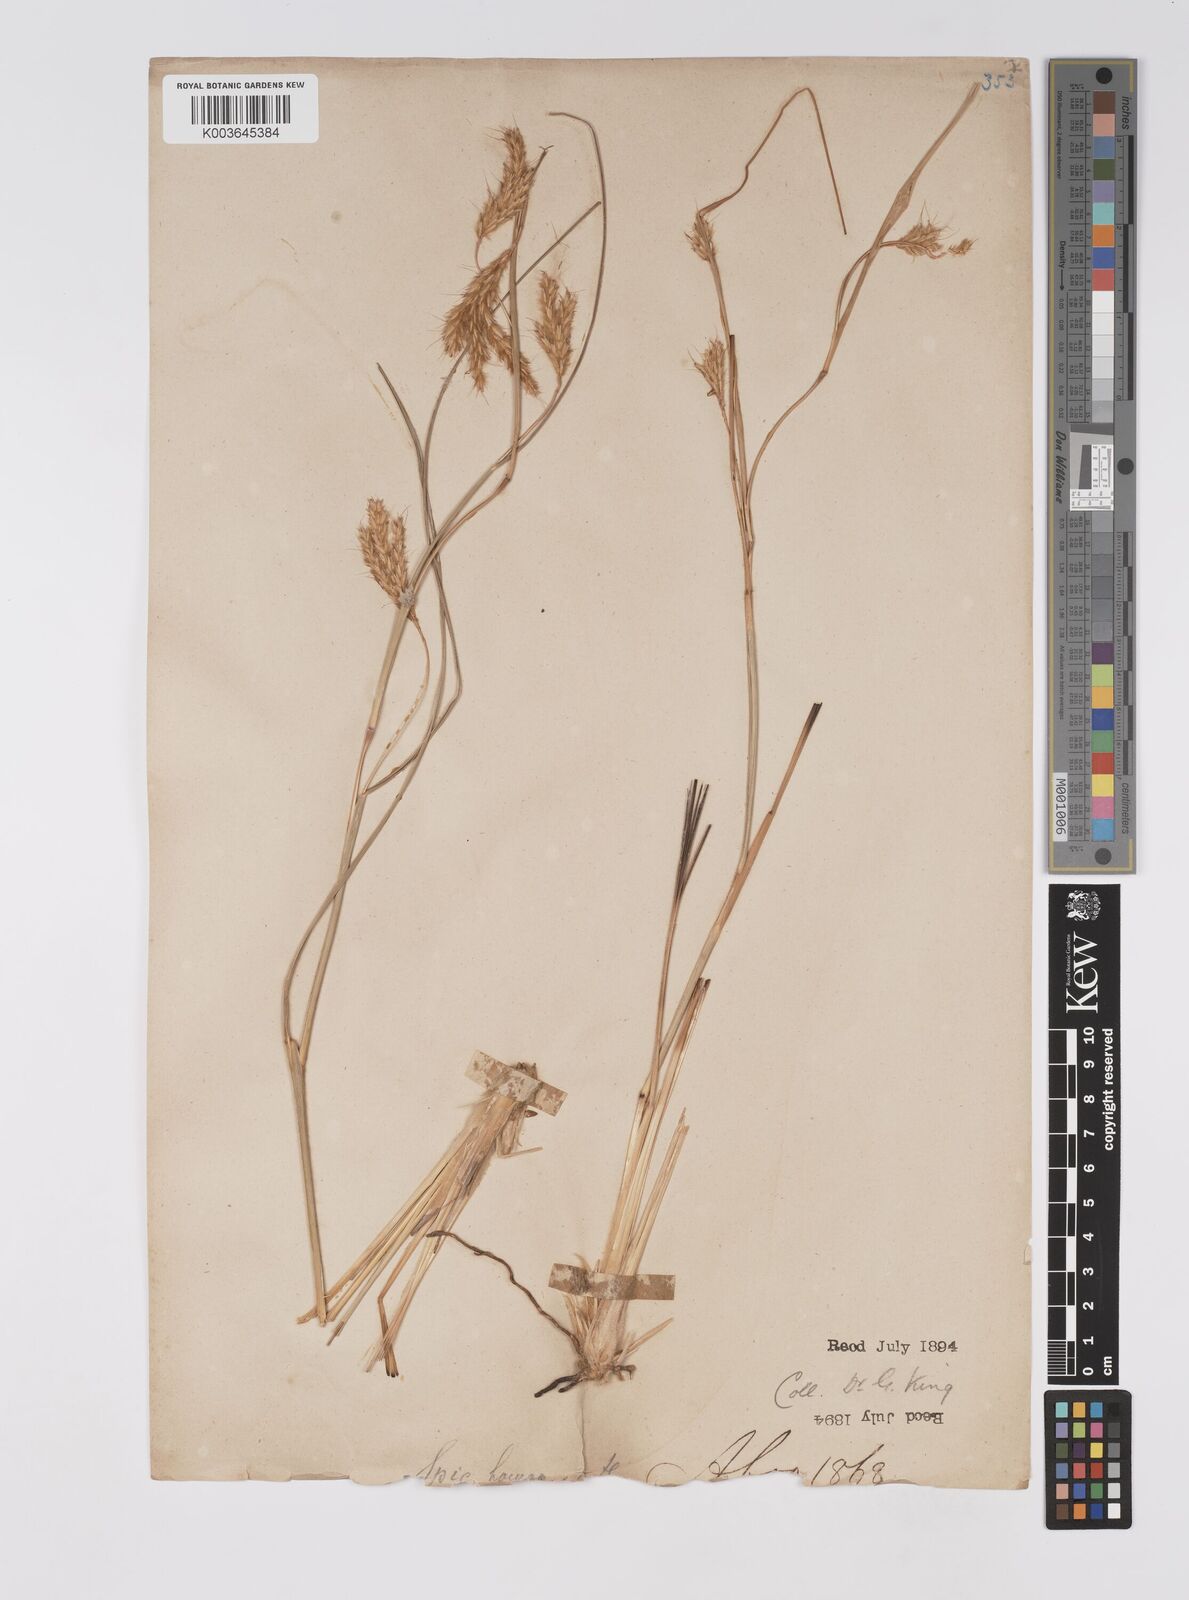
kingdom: Plantae
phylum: Tracheophyta
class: Liliopsida
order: Poales
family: Poaceae
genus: Eulaliopsis
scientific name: Eulaliopsis binata
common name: Baib grass
